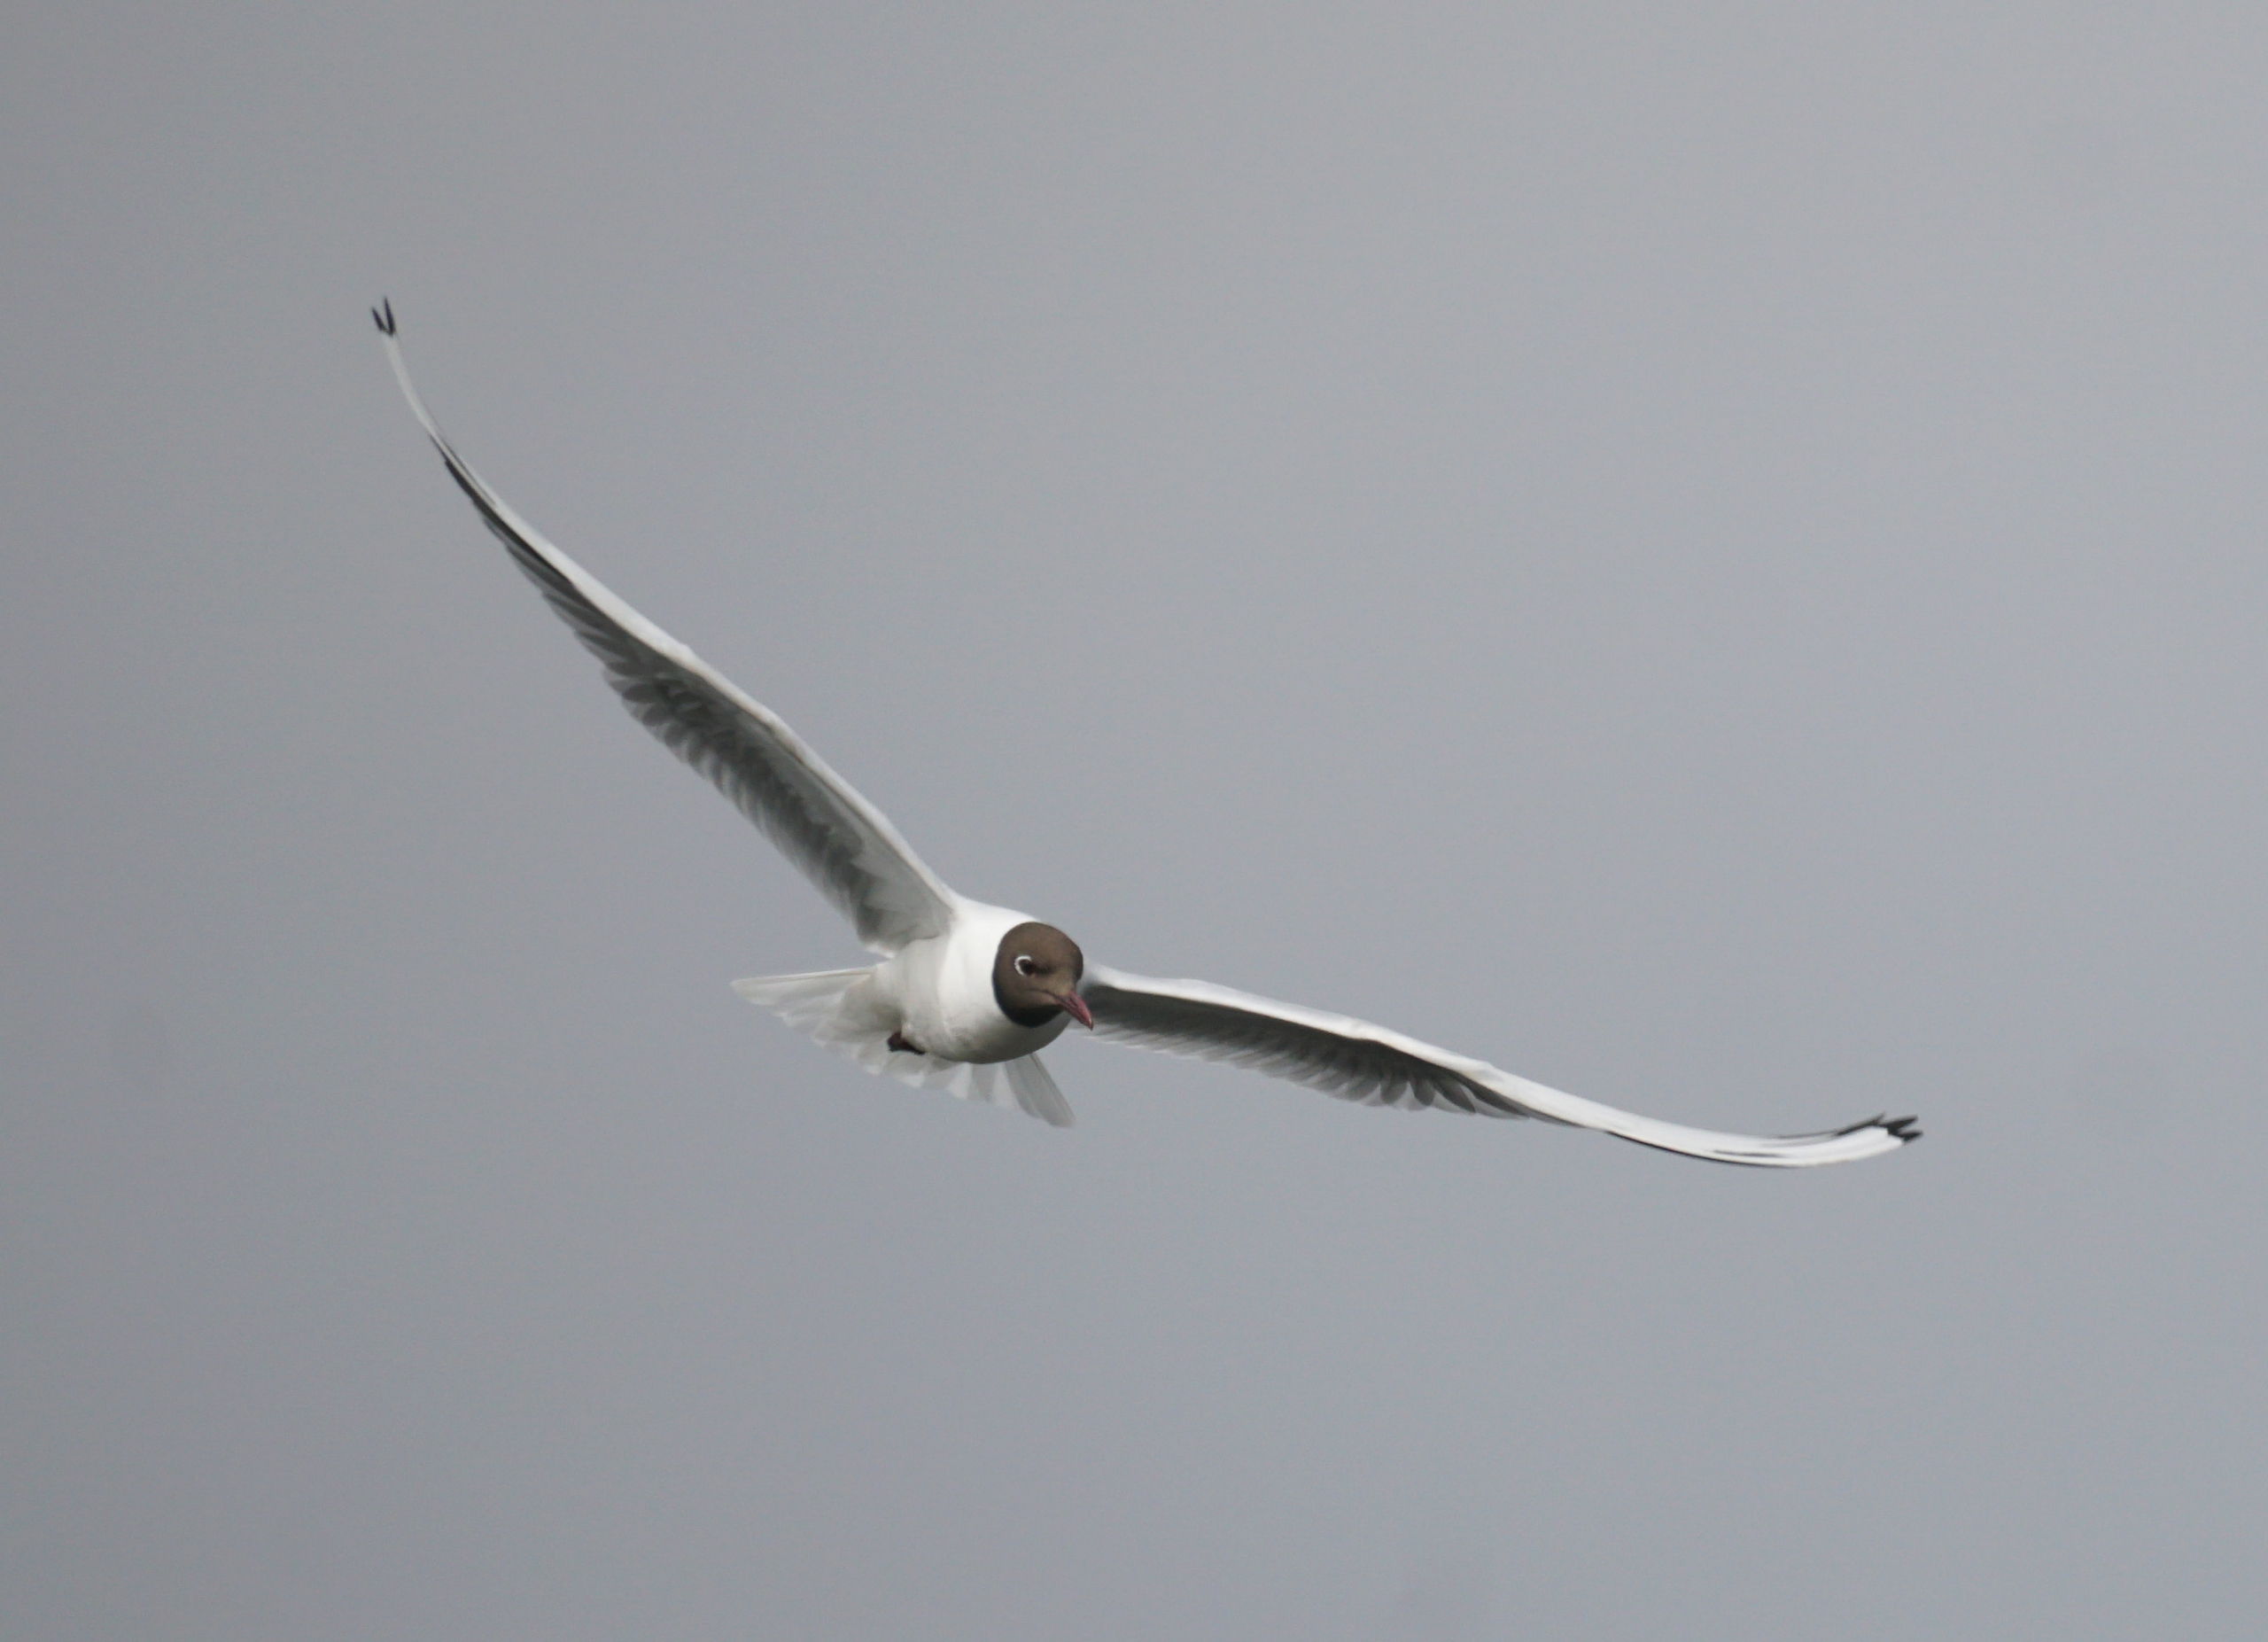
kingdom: Animalia
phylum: Chordata
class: Aves
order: Charadriiformes
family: Laridae
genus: Chroicocephalus
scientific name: Chroicocephalus ridibundus
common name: Hættemåge
